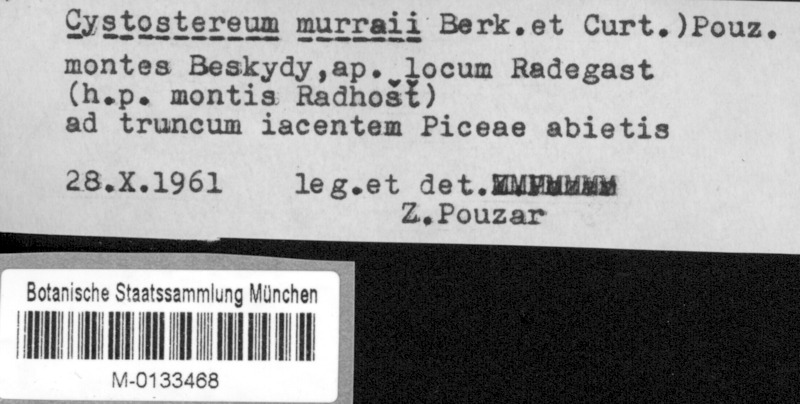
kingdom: Fungi
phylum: Basidiomycota
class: Agaricomycetes
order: Agaricales
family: Cystostereaceae
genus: Cystostereum
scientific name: Cystostereum murrayi
